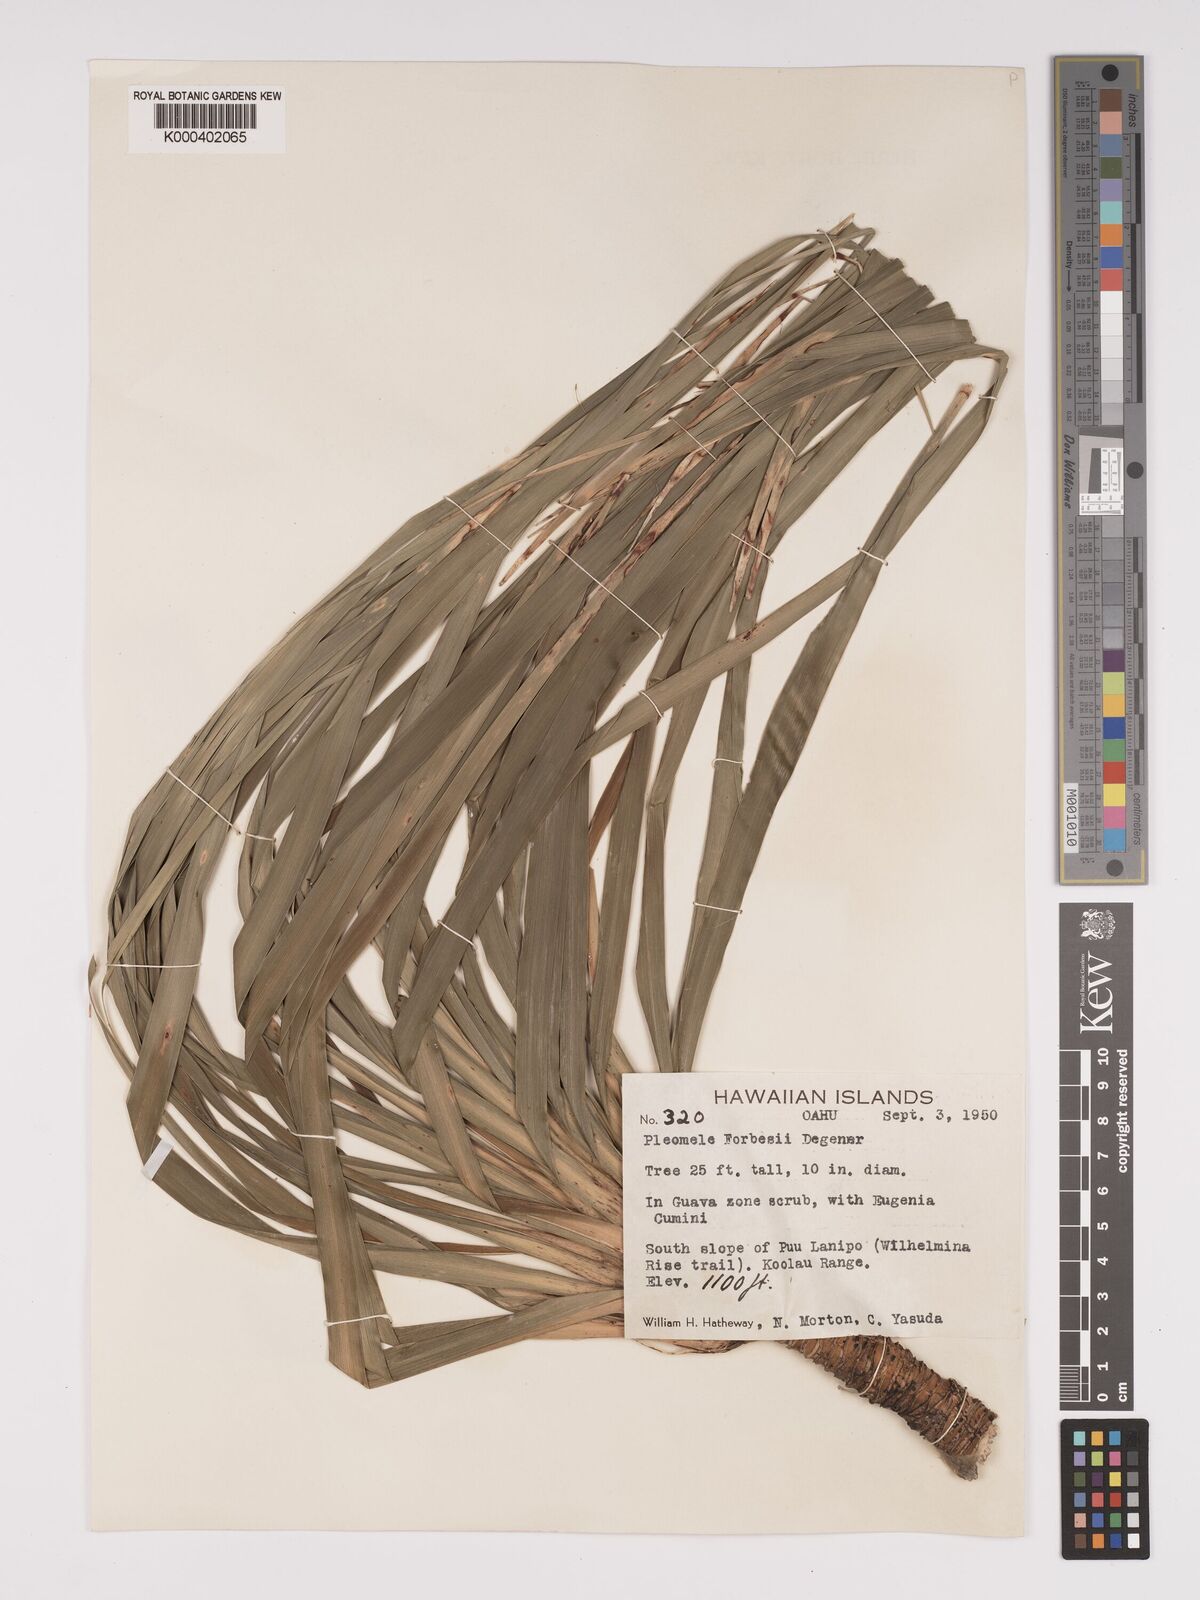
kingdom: Plantae
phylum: Tracheophyta
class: Liliopsida
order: Asparagales
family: Asparagaceae
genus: Dracaena
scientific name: Dracaena forbesii
